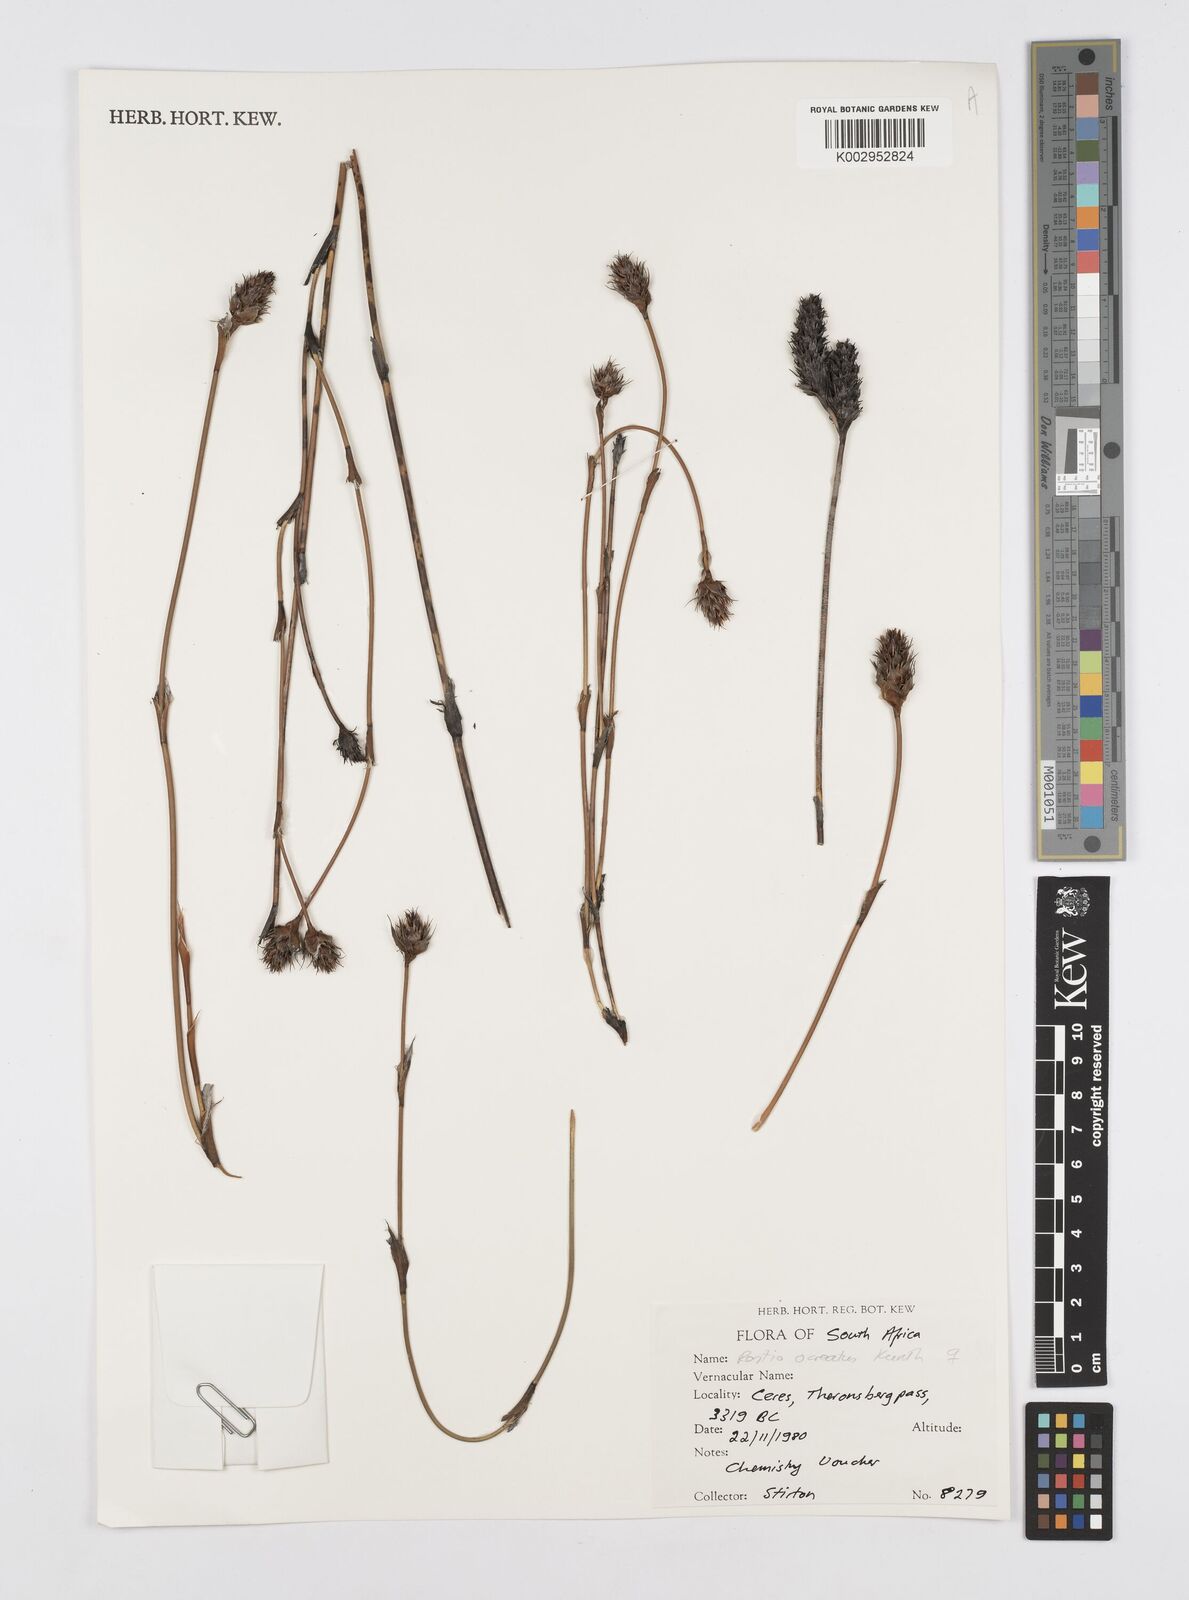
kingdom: Plantae
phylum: Tracheophyta
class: Liliopsida
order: Poales
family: Restionaceae
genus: Restio
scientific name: Restio ocreatus
